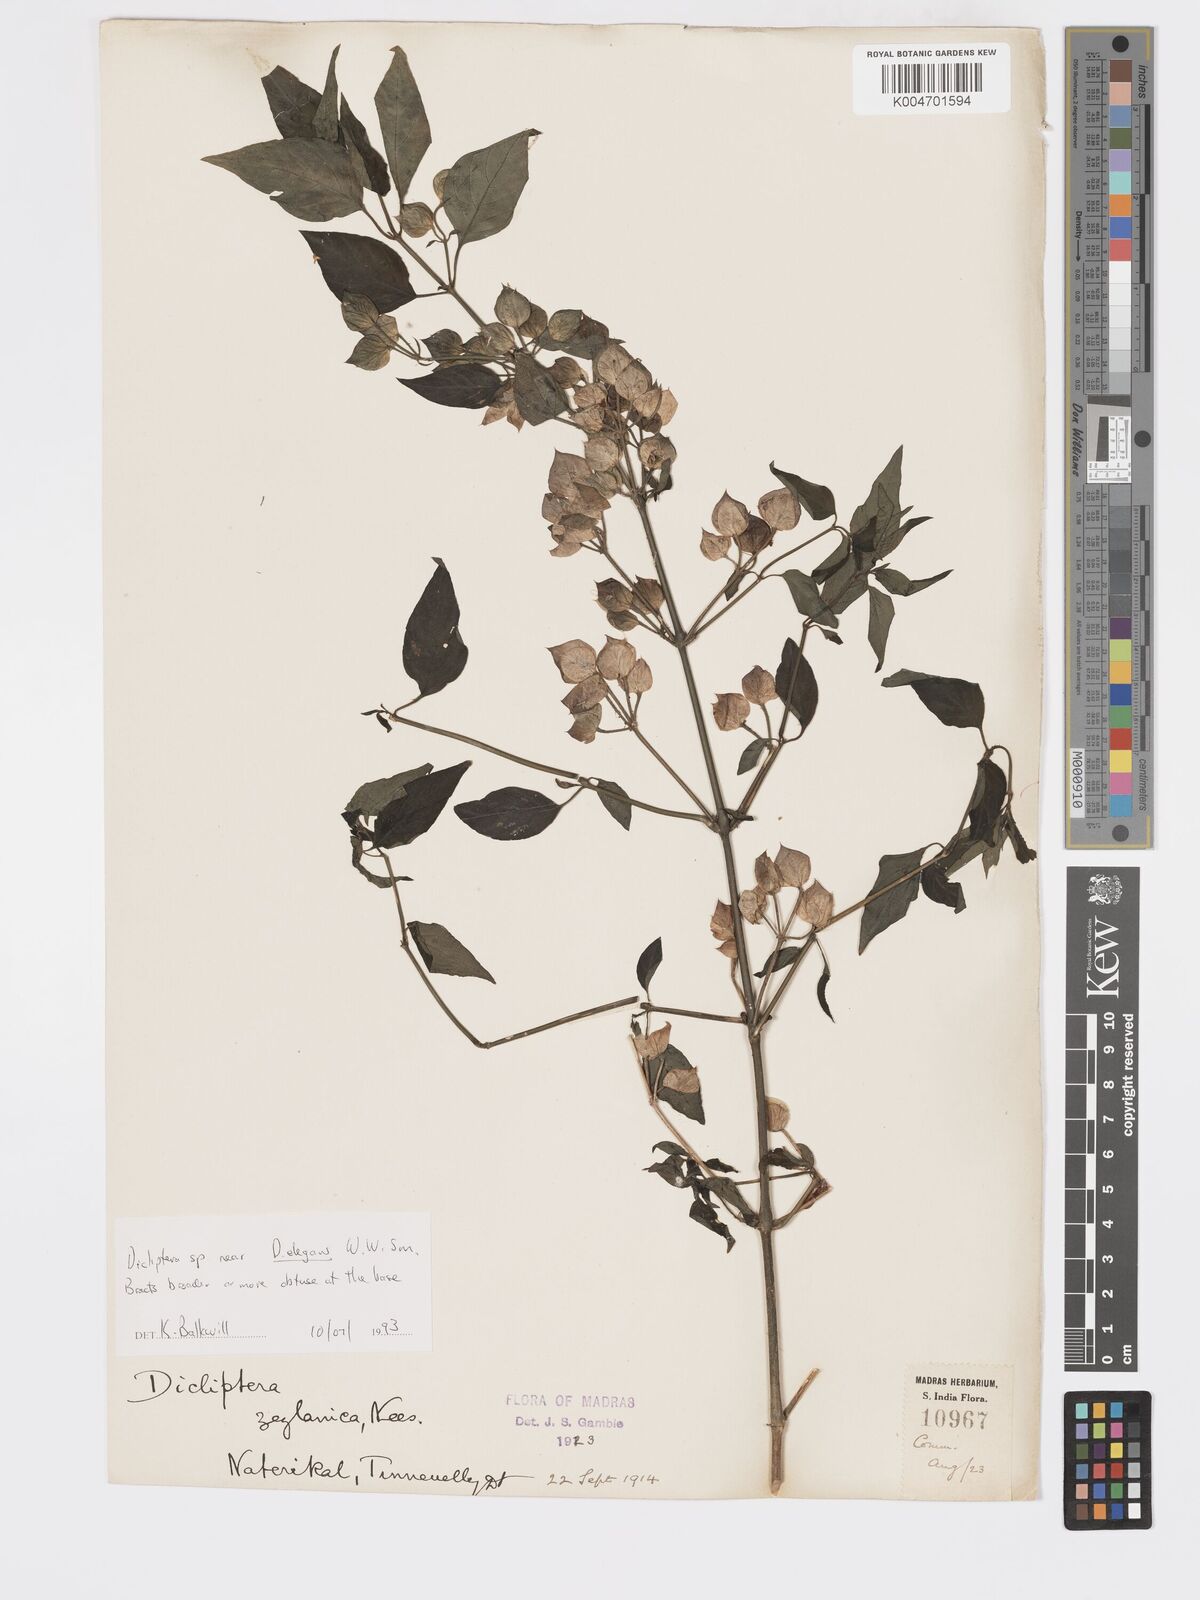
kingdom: Plantae
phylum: Tracheophyta
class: Magnoliopsida
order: Lamiales
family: Acanthaceae
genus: Dicliptera
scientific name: Dicliptera foetida
